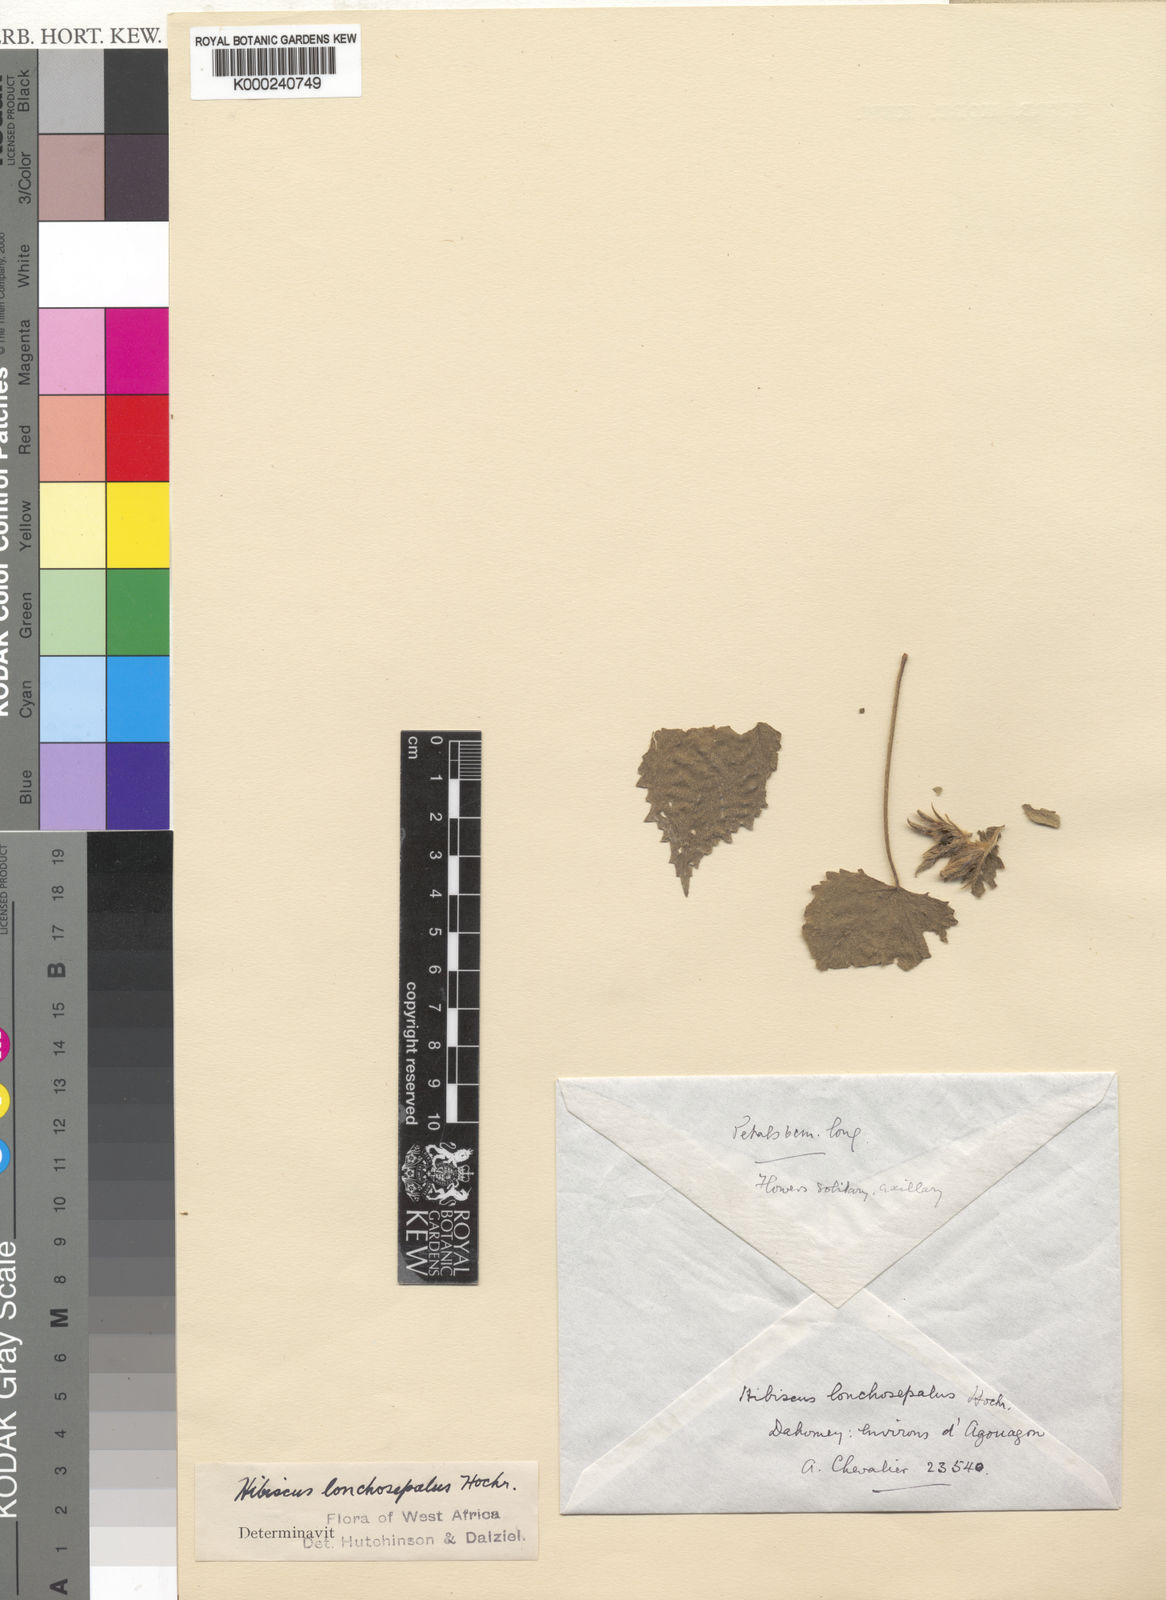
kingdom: Plantae
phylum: Tracheophyta
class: Magnoliopsida
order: Malvales
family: Malvaceae
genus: Hibiscus
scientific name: Hibiscus longisepalus
